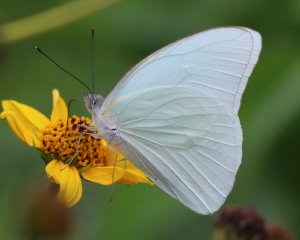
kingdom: Animalia
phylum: Arthropoda
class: Insecta
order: Lepidoptera
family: Pieridae
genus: Glutophrissa
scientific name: Glutophrissa drusilla
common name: Florida White
